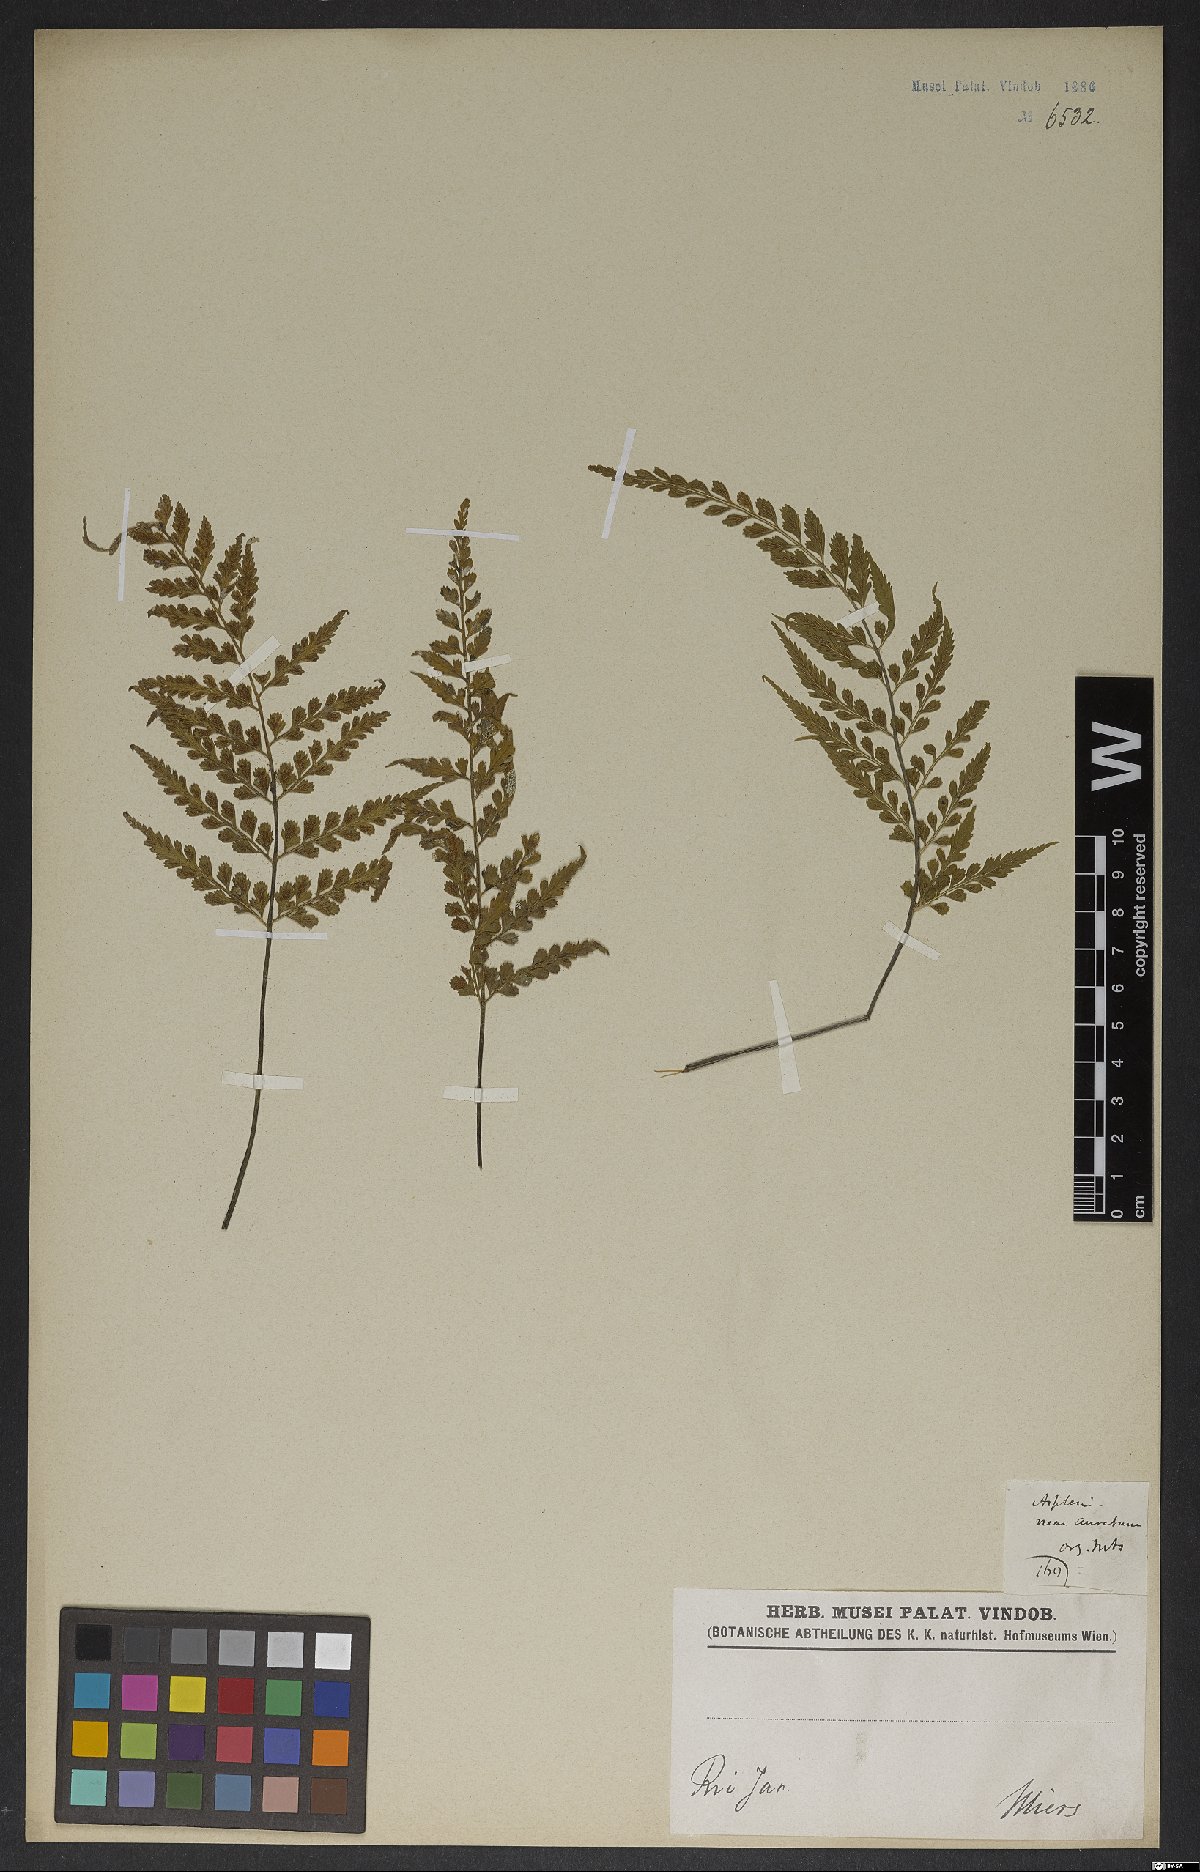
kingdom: Plantae
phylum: Tracheophyta
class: Polypodiopsida
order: Polypodiales
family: Aspleniaceae
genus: Asplenium
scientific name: Asplenium sulcatum
